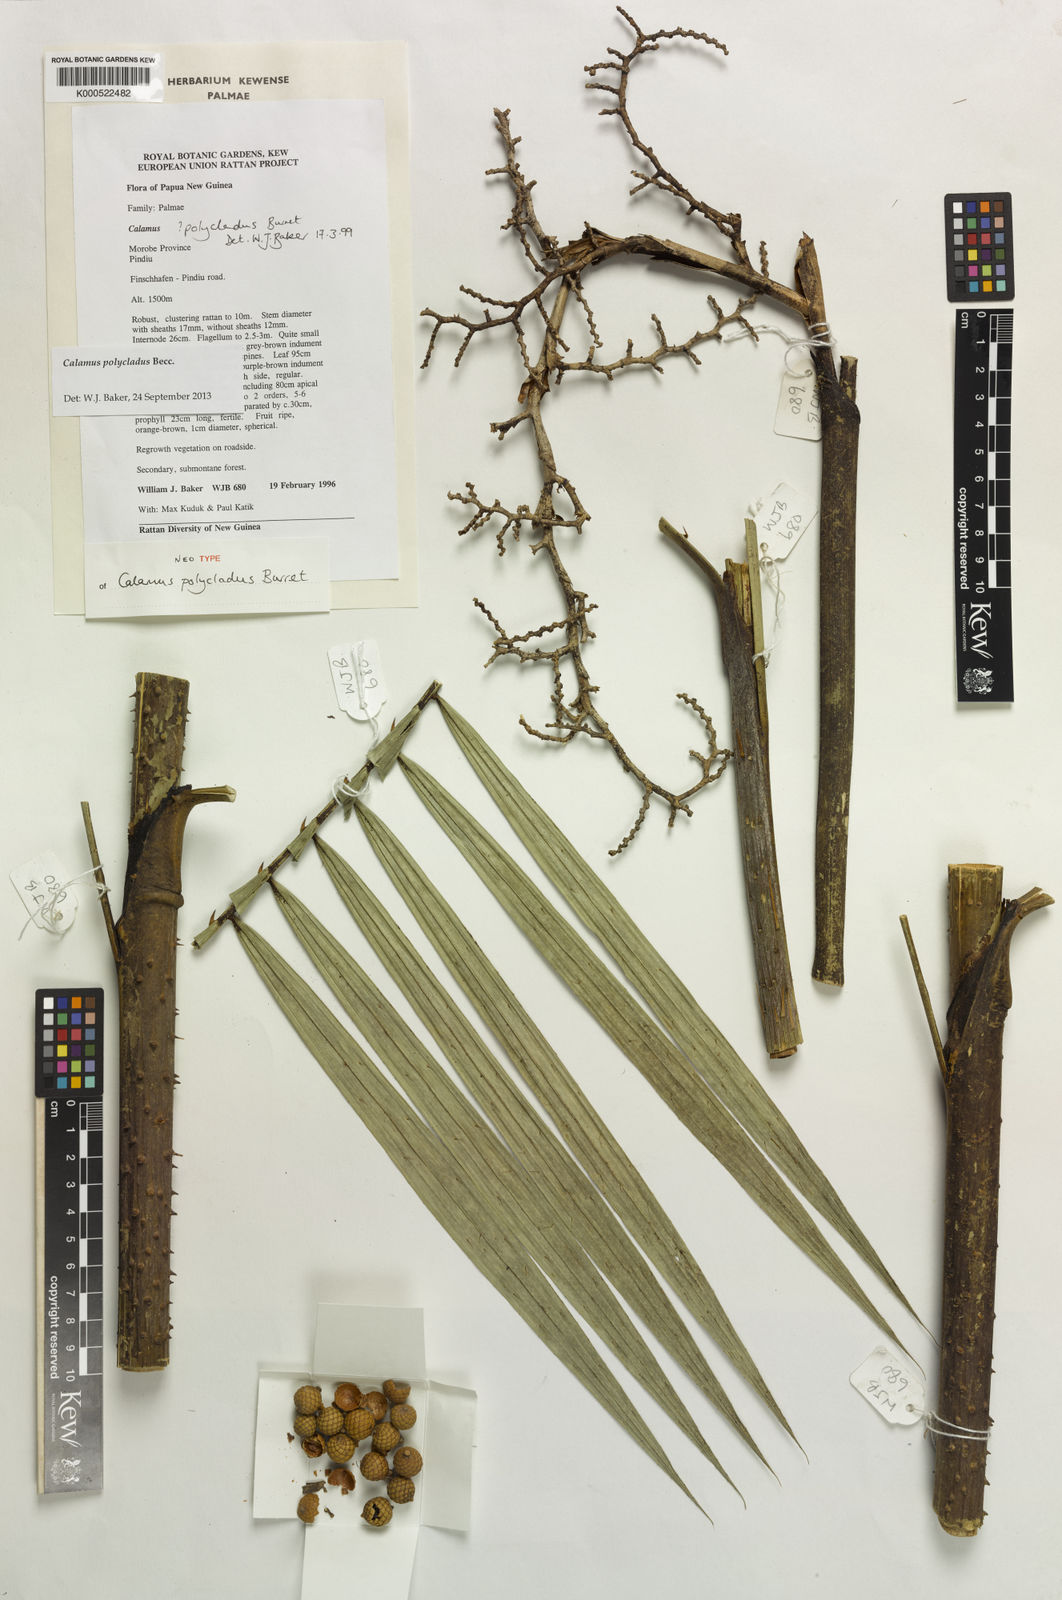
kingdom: Plantae
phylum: Tracheophyta
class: Liliopsida
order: Arecales
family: Arecaceae
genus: Calamus
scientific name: Calamus polycladus
